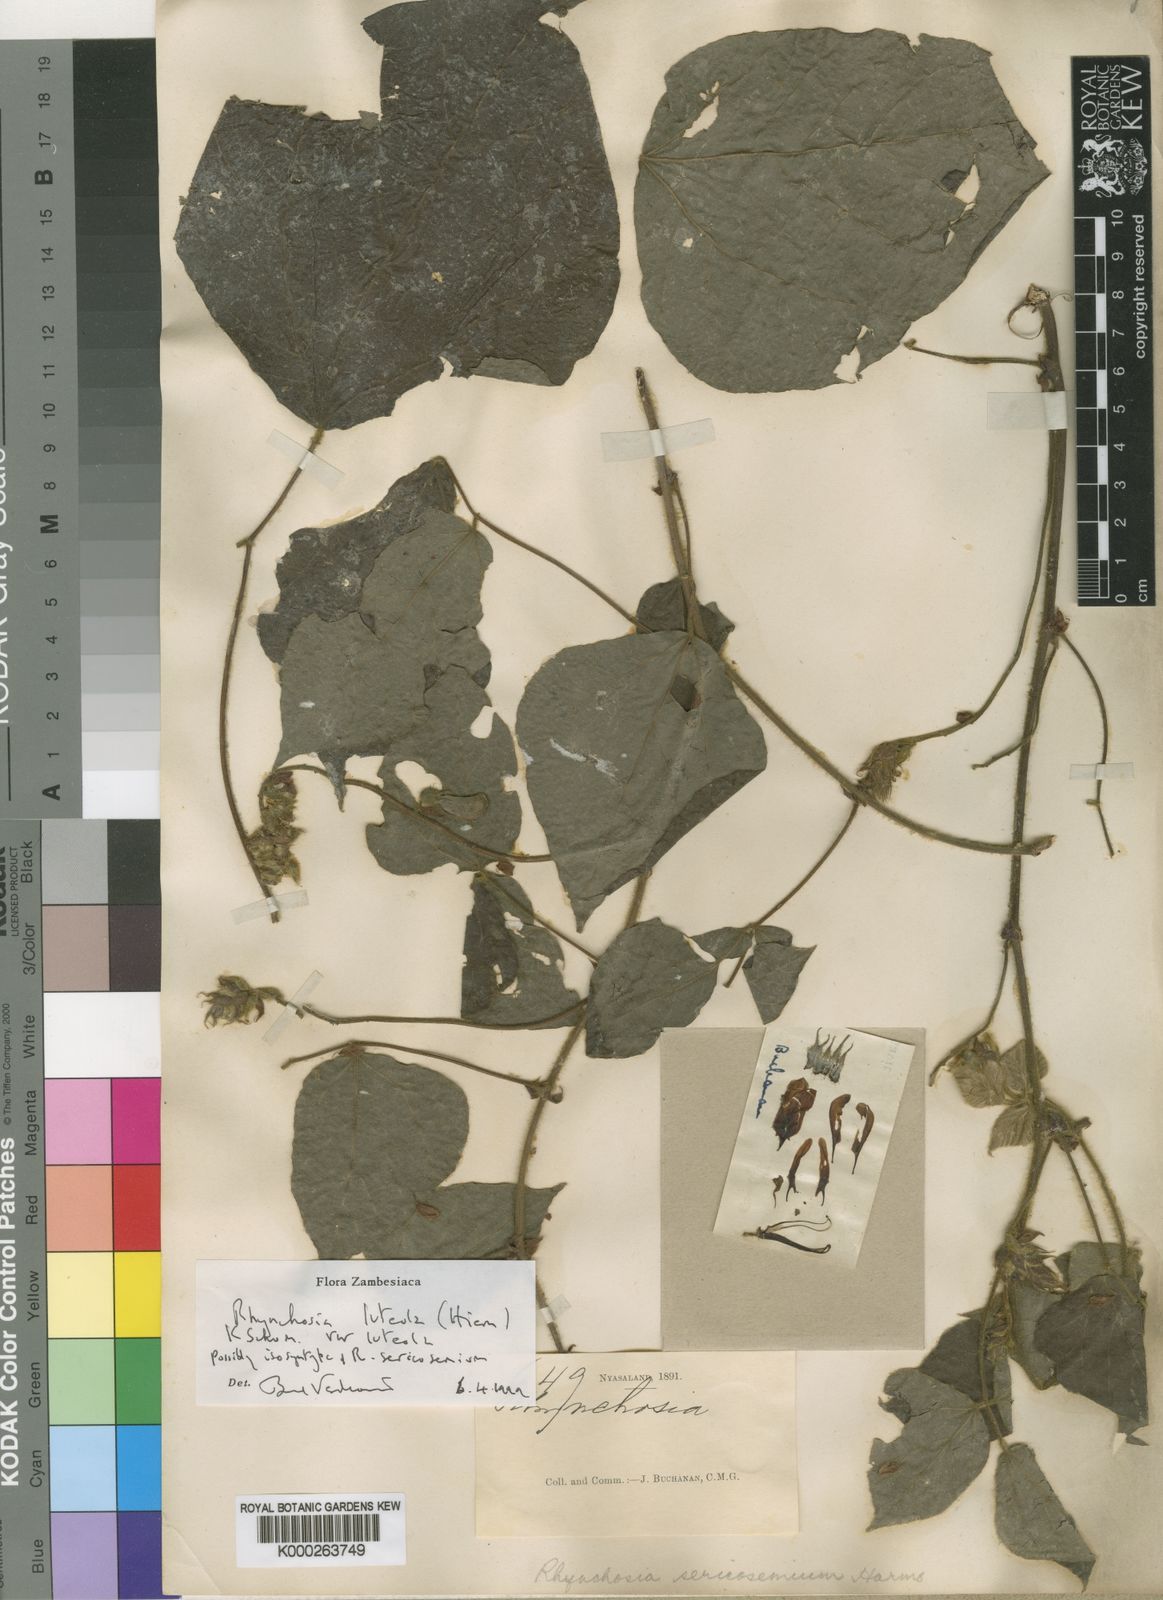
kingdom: Plantae
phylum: Tracheophyta
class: Magnoliopsida
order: Fabales
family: Fabaceae
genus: Rhynchosia
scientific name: Rhynchosia luteola
